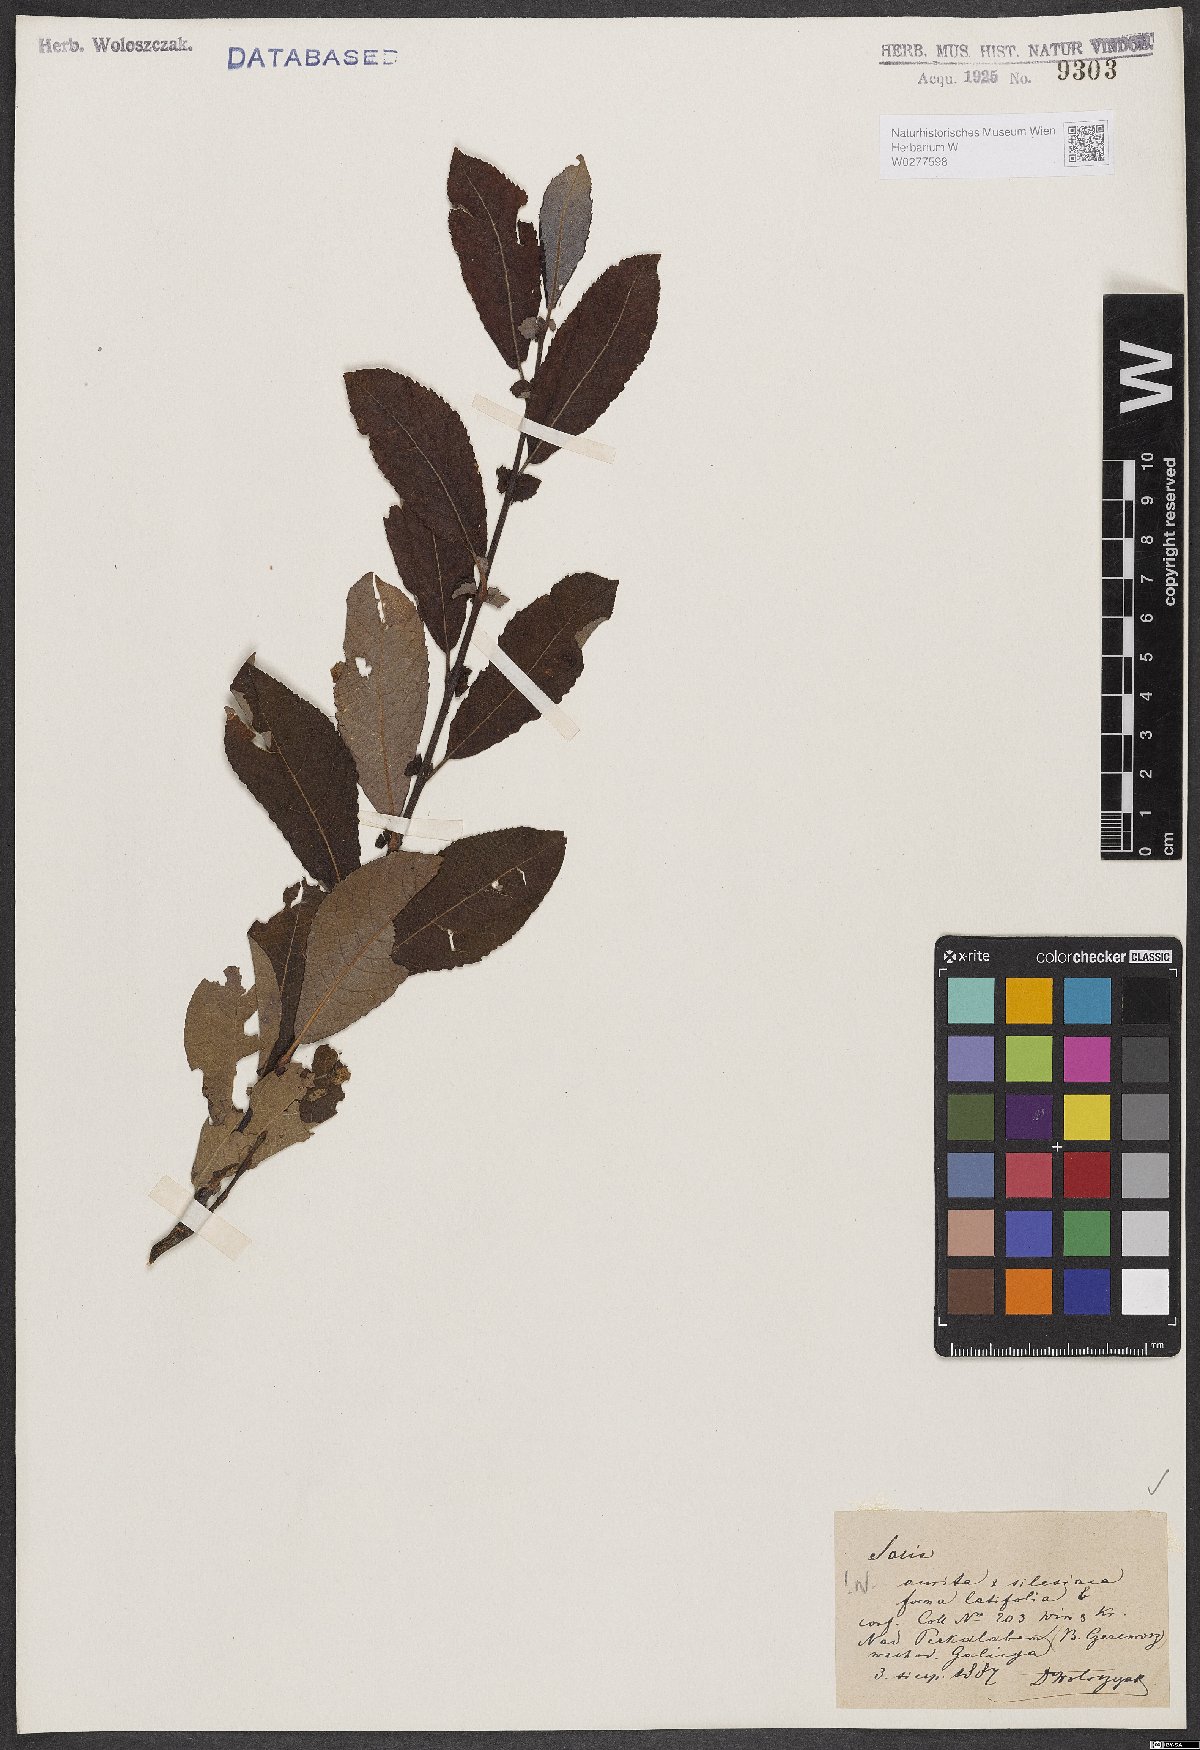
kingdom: Plantae
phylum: Tracheophyta
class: Magnoliopsida
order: Malpighiales
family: Salicaceae
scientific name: Salicaceae
